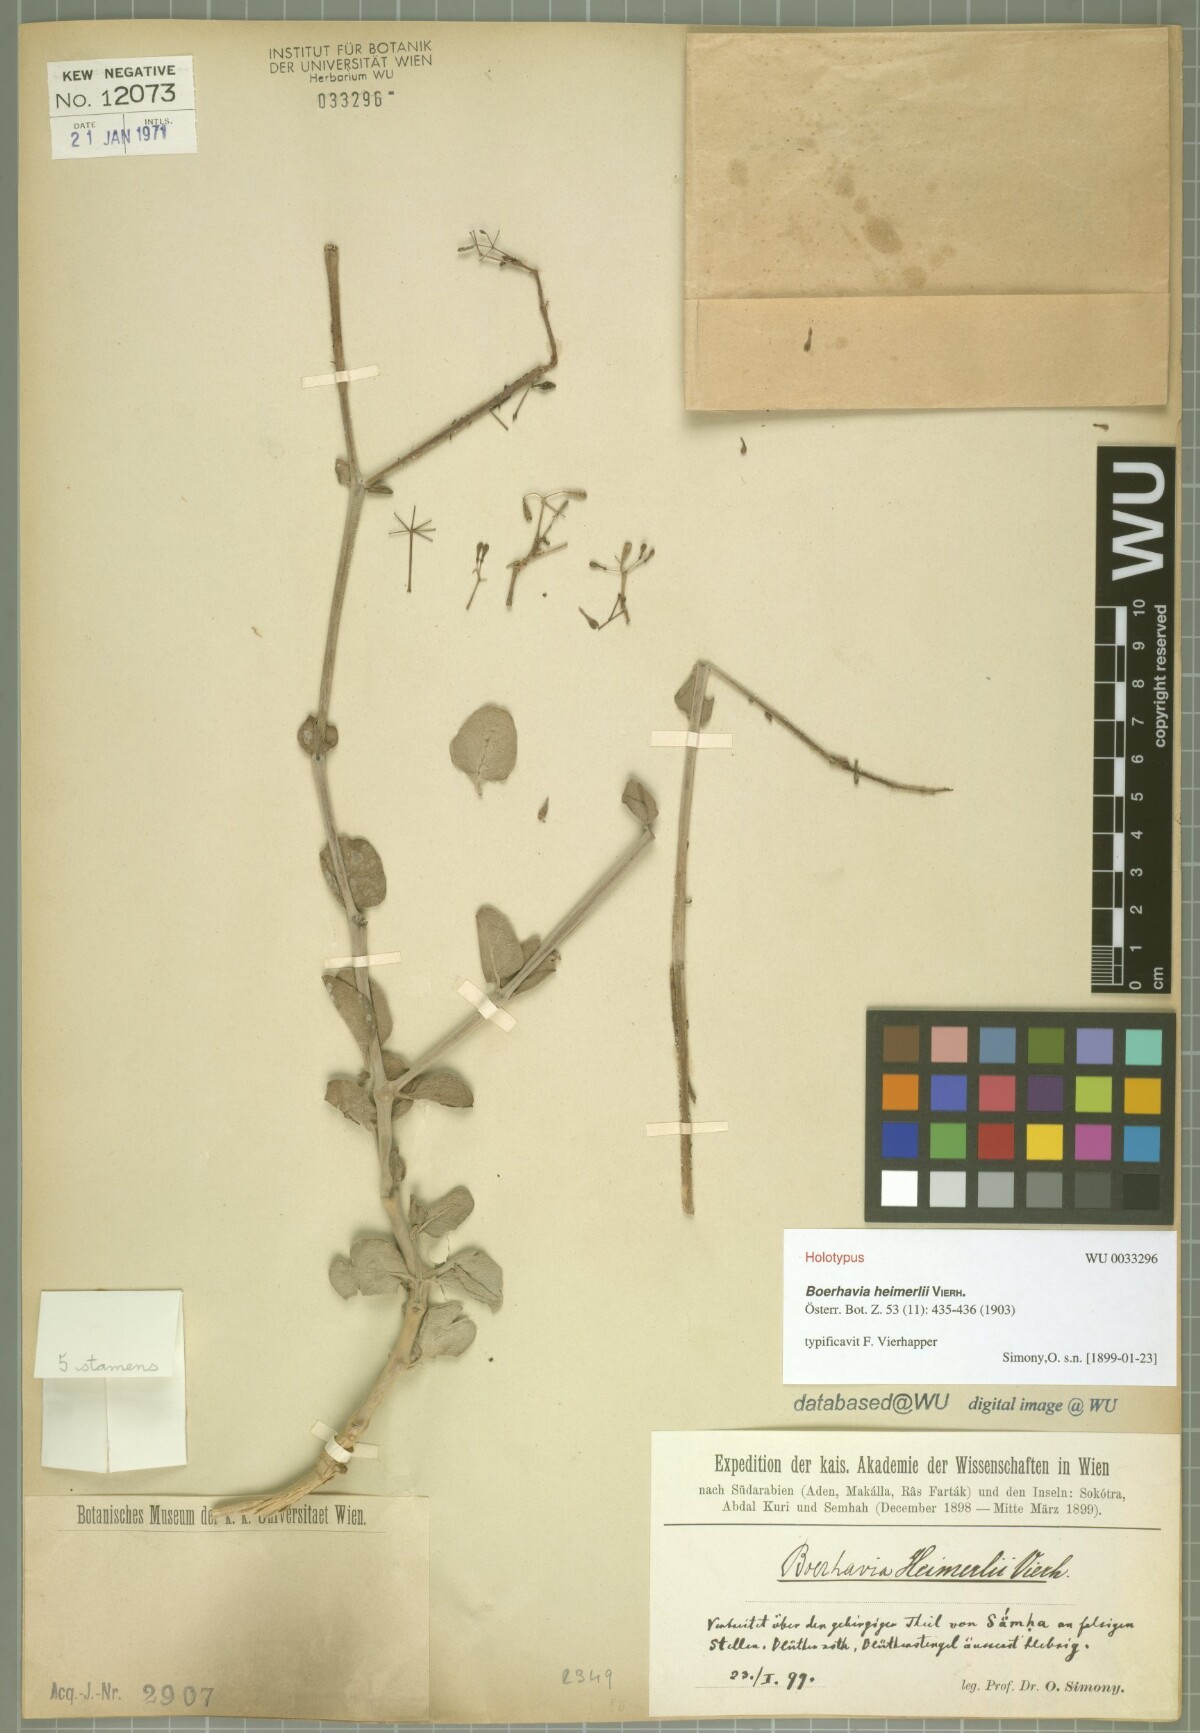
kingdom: Plantae
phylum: Tracheophyta
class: Magnoliopsida
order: Caryophyllales
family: Nyctaginaceae
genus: Commicarpus
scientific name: Commicarpus heimerlii
